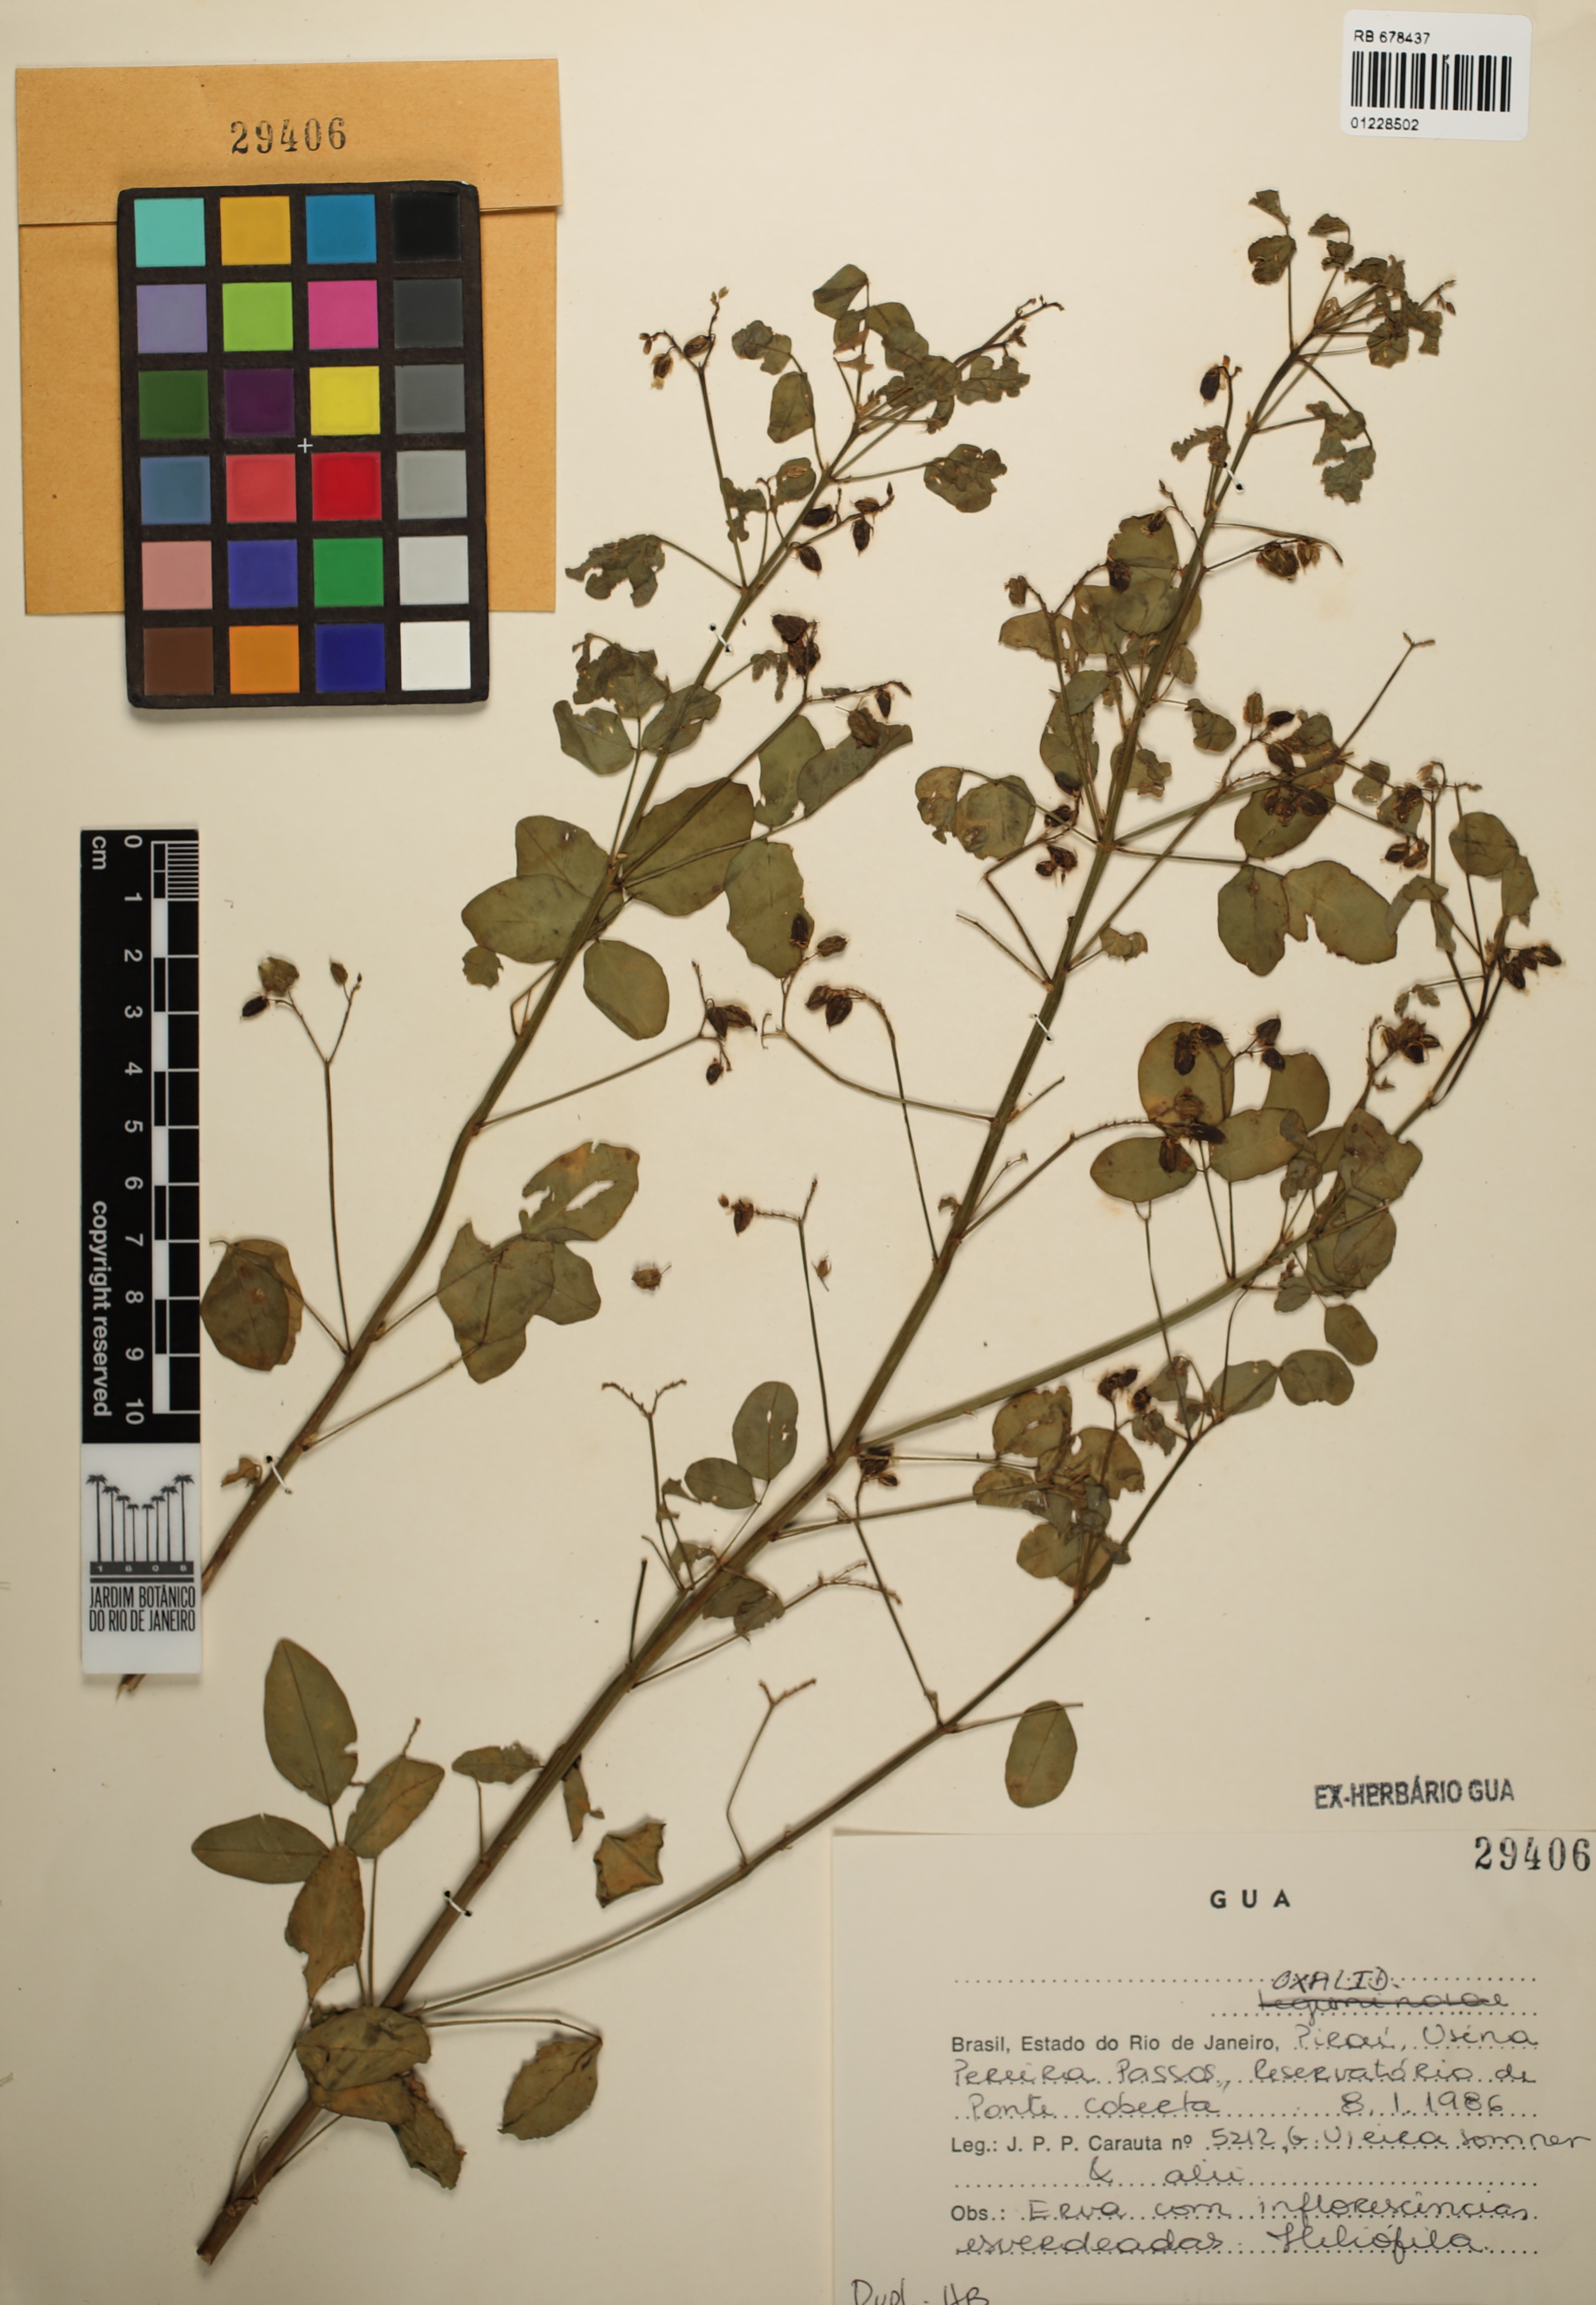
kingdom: Plantae
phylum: Tracheophyta
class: Magnoliopsida
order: Oxalidales
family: Oxalidaceae
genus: Oxalis
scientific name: Oxalis barrelieri
